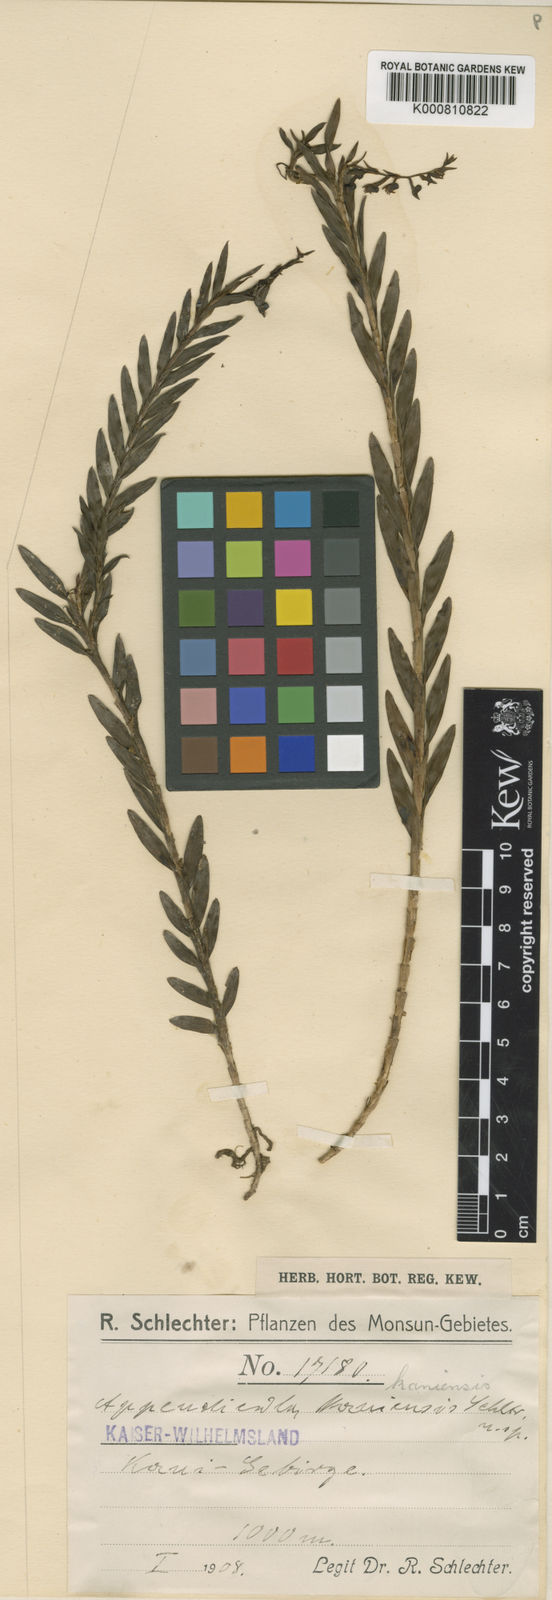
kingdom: Plantae
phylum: Tracheophyta
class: Liliopsida
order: Asparagales
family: Orchidaceae
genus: Appendicula
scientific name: Appendicula kaniensis
